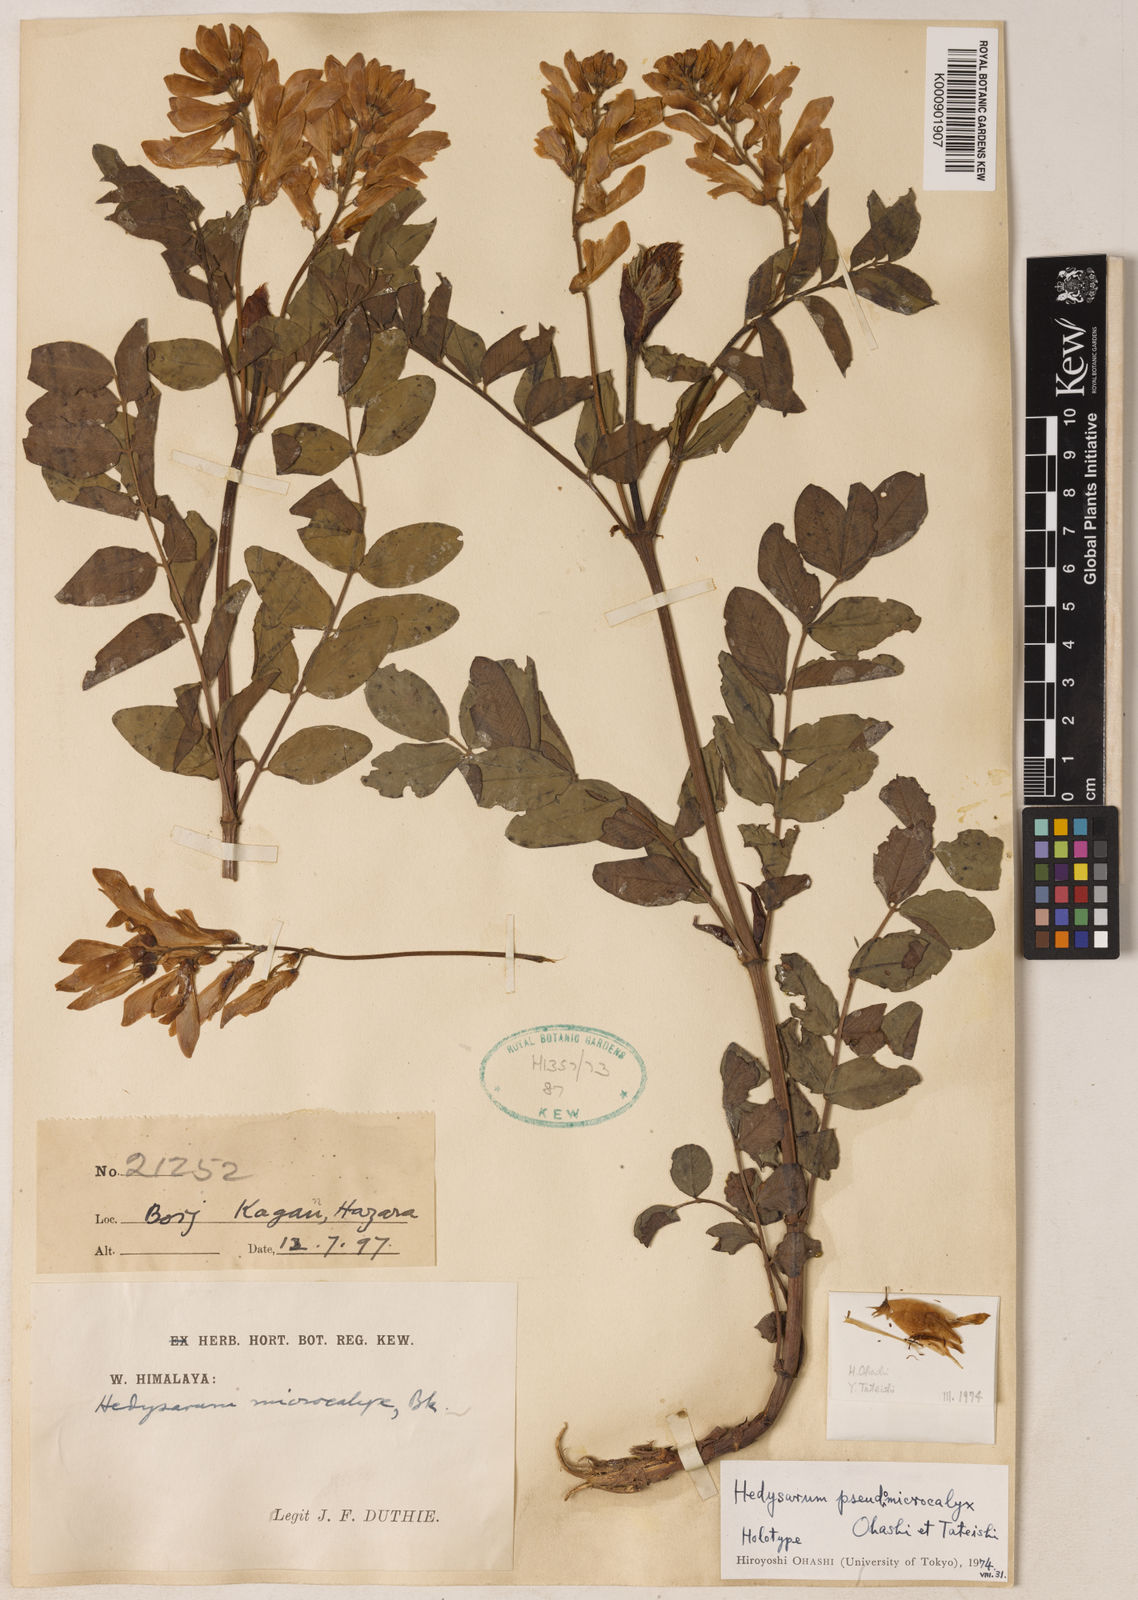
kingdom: Plantae
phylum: Tracheophyta
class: Magnoliopsida
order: Fabales
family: Fabaceae
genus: Hedysarum
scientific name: Hedysarum pseudomicrocalyx
